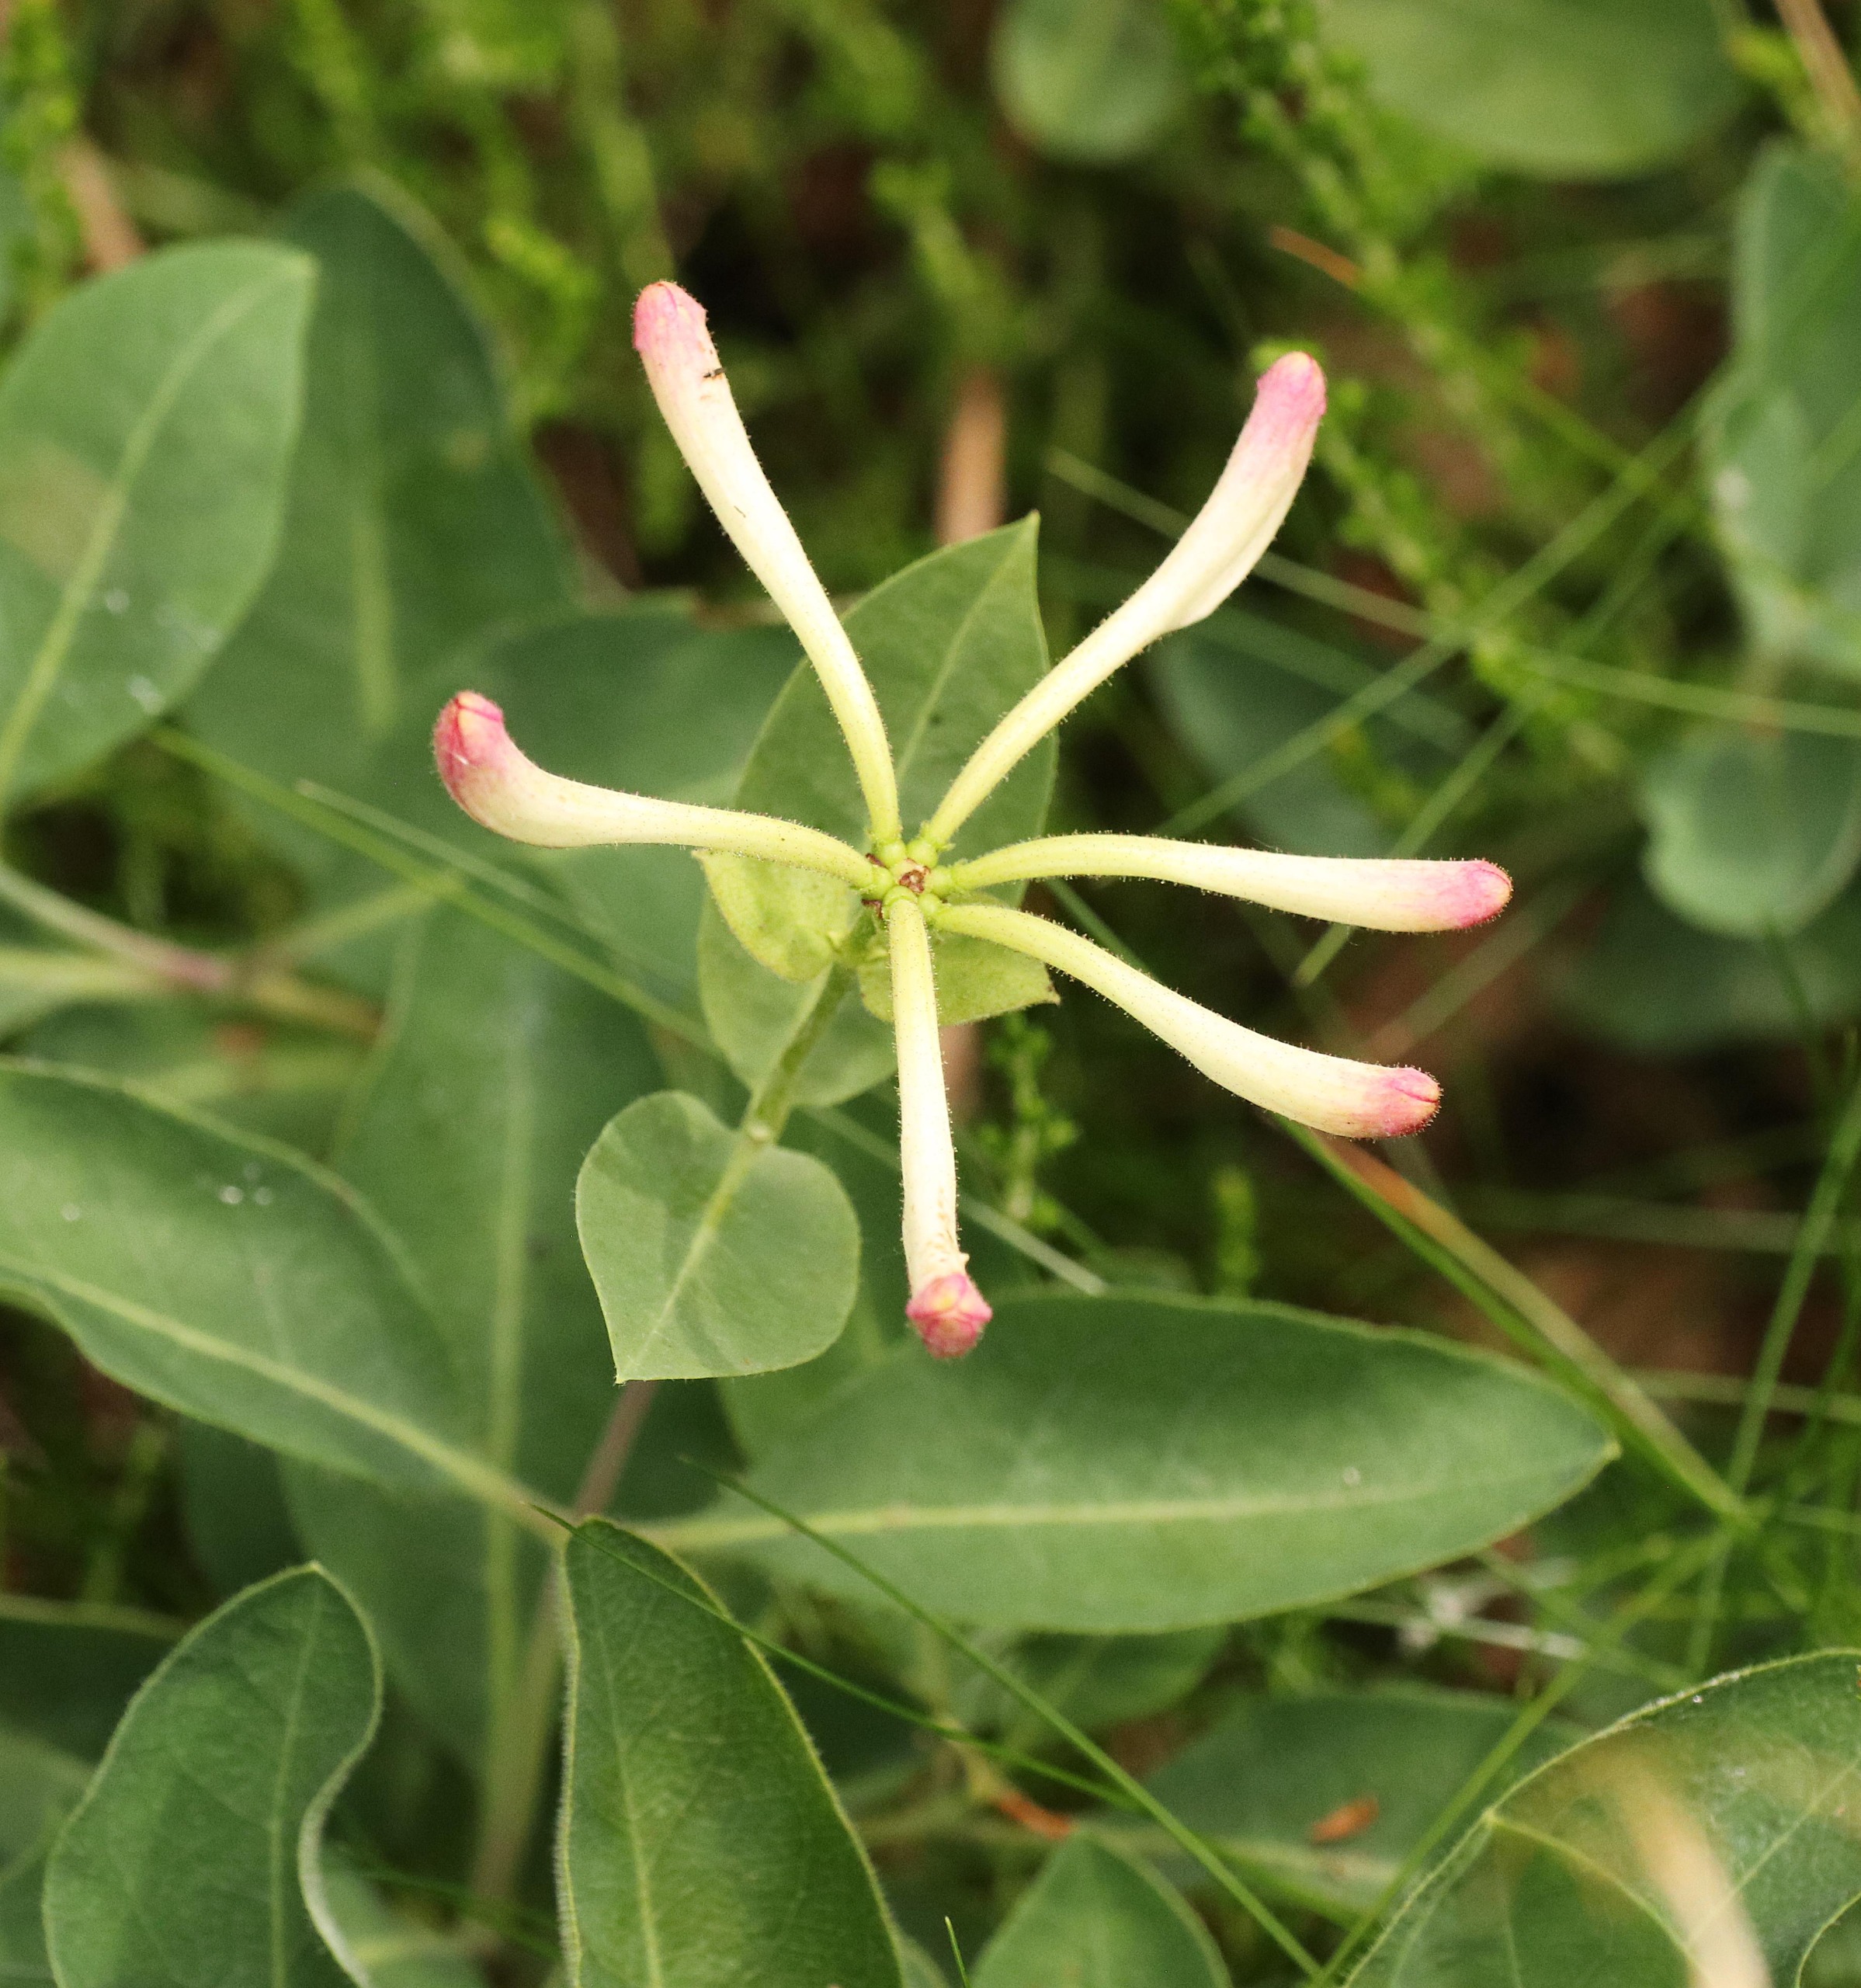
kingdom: Plantae
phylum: Tracheophyta
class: Magnoliopsida
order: Dipsacales
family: Caprifoliaceae
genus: Lonicera
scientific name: Lonicera periclymenum
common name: Almindelig gedeblad
